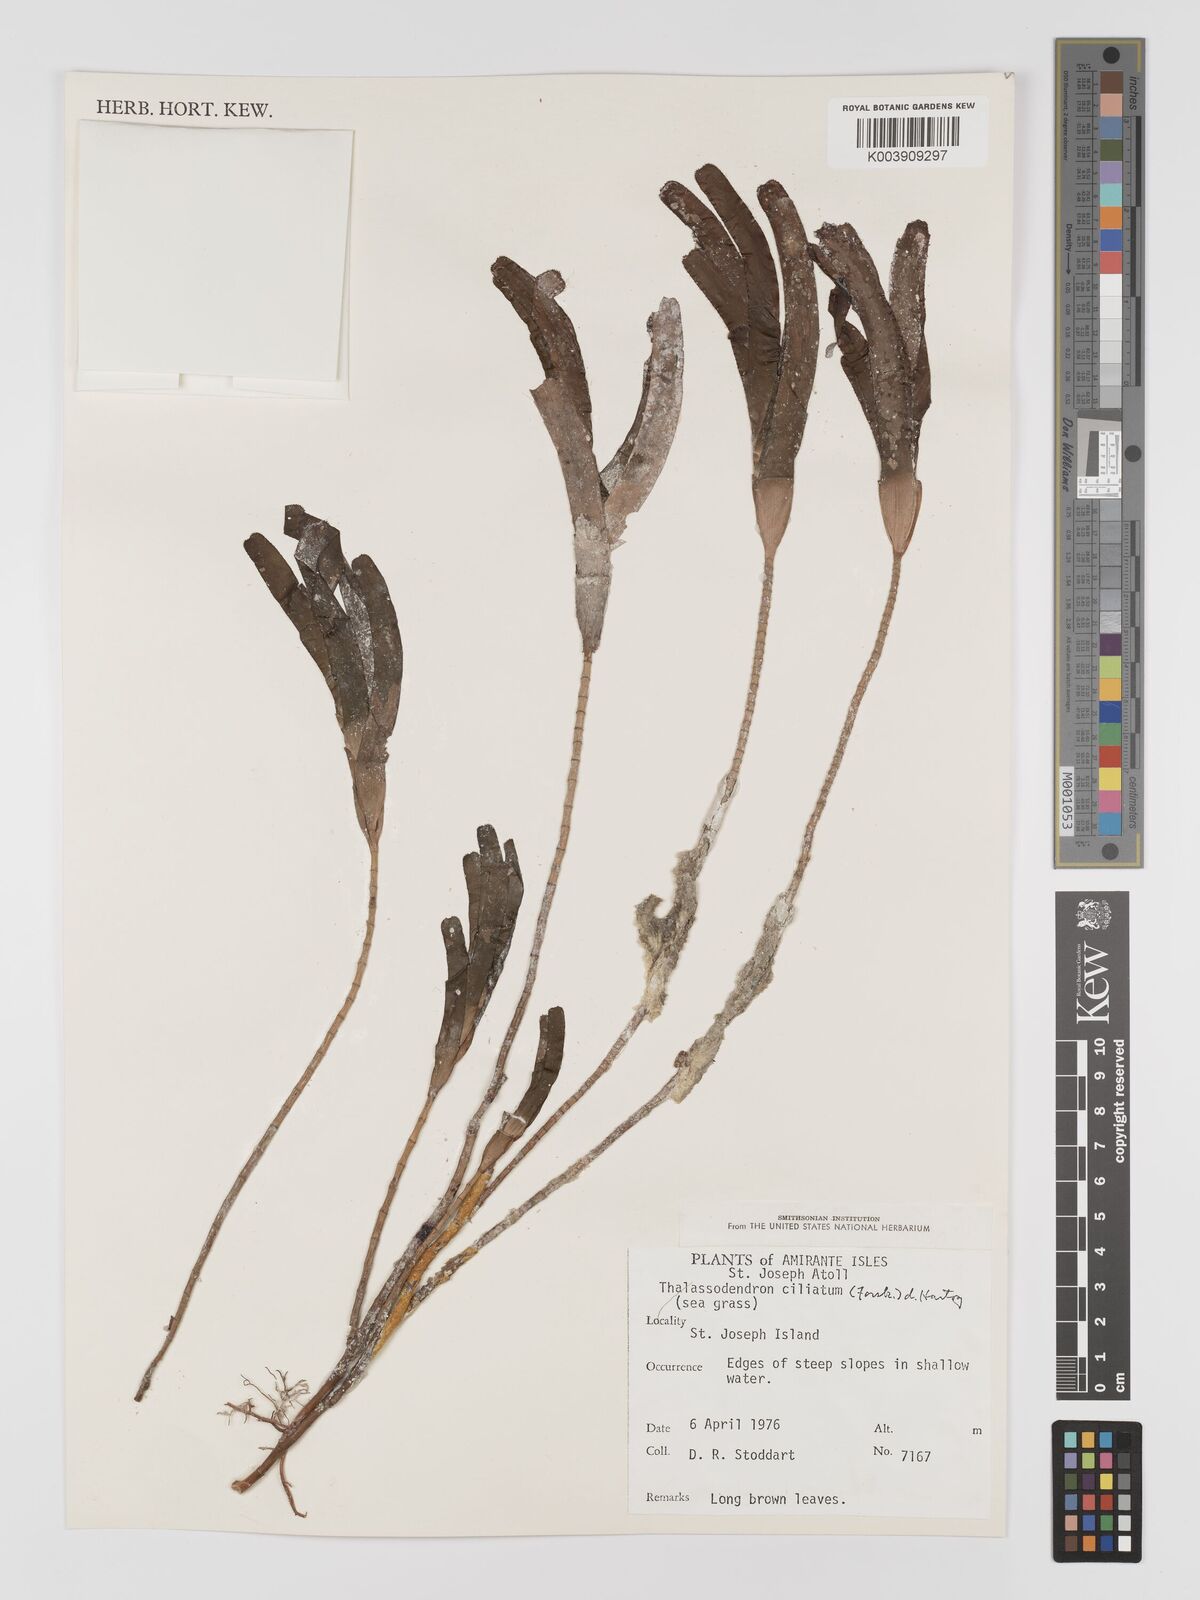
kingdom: Plantae
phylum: Tracheophyta
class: Liliopsida
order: Alismatales
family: Cymodoceaceae
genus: Thalassodendron
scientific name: Thalassodendron ciliatum
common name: Species code: tc
